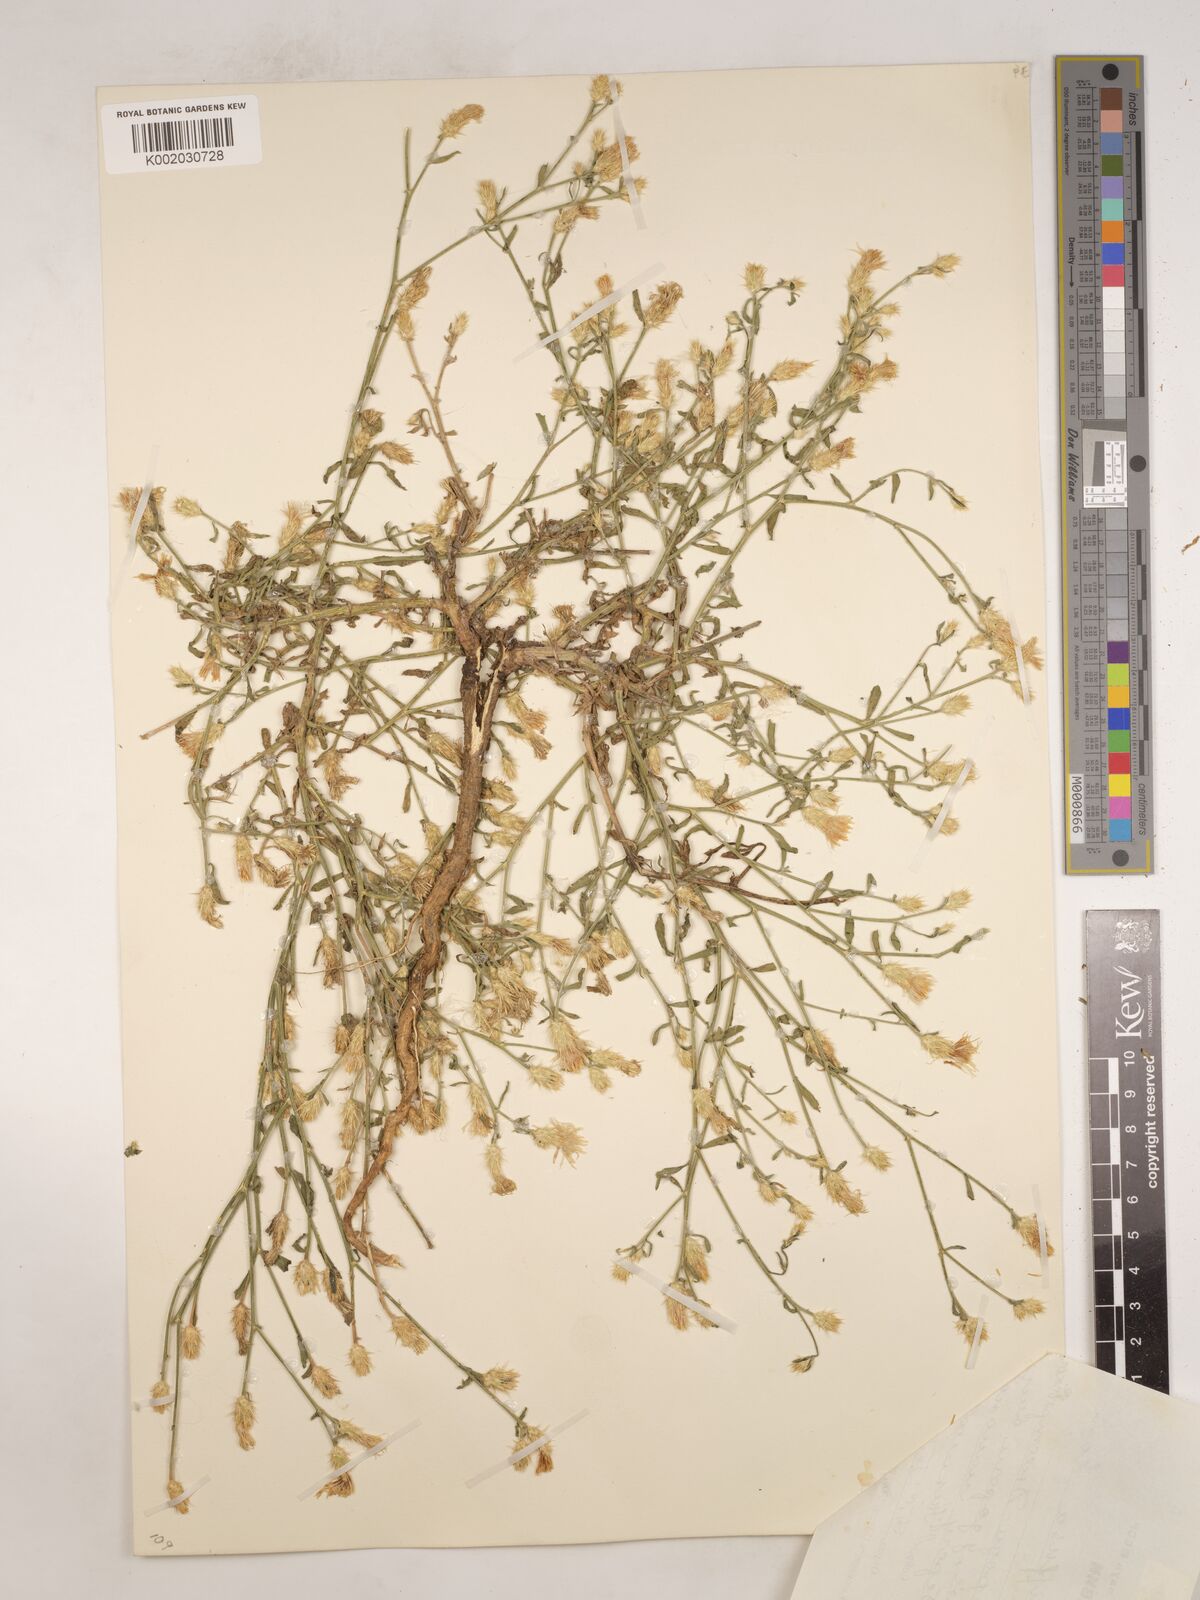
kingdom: Plantae
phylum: Tracheophyta
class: Magnoliopsida
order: Asterales
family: Asteraceae
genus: Centaurea
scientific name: Centaurea diffusa
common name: Diffuse knapweed
